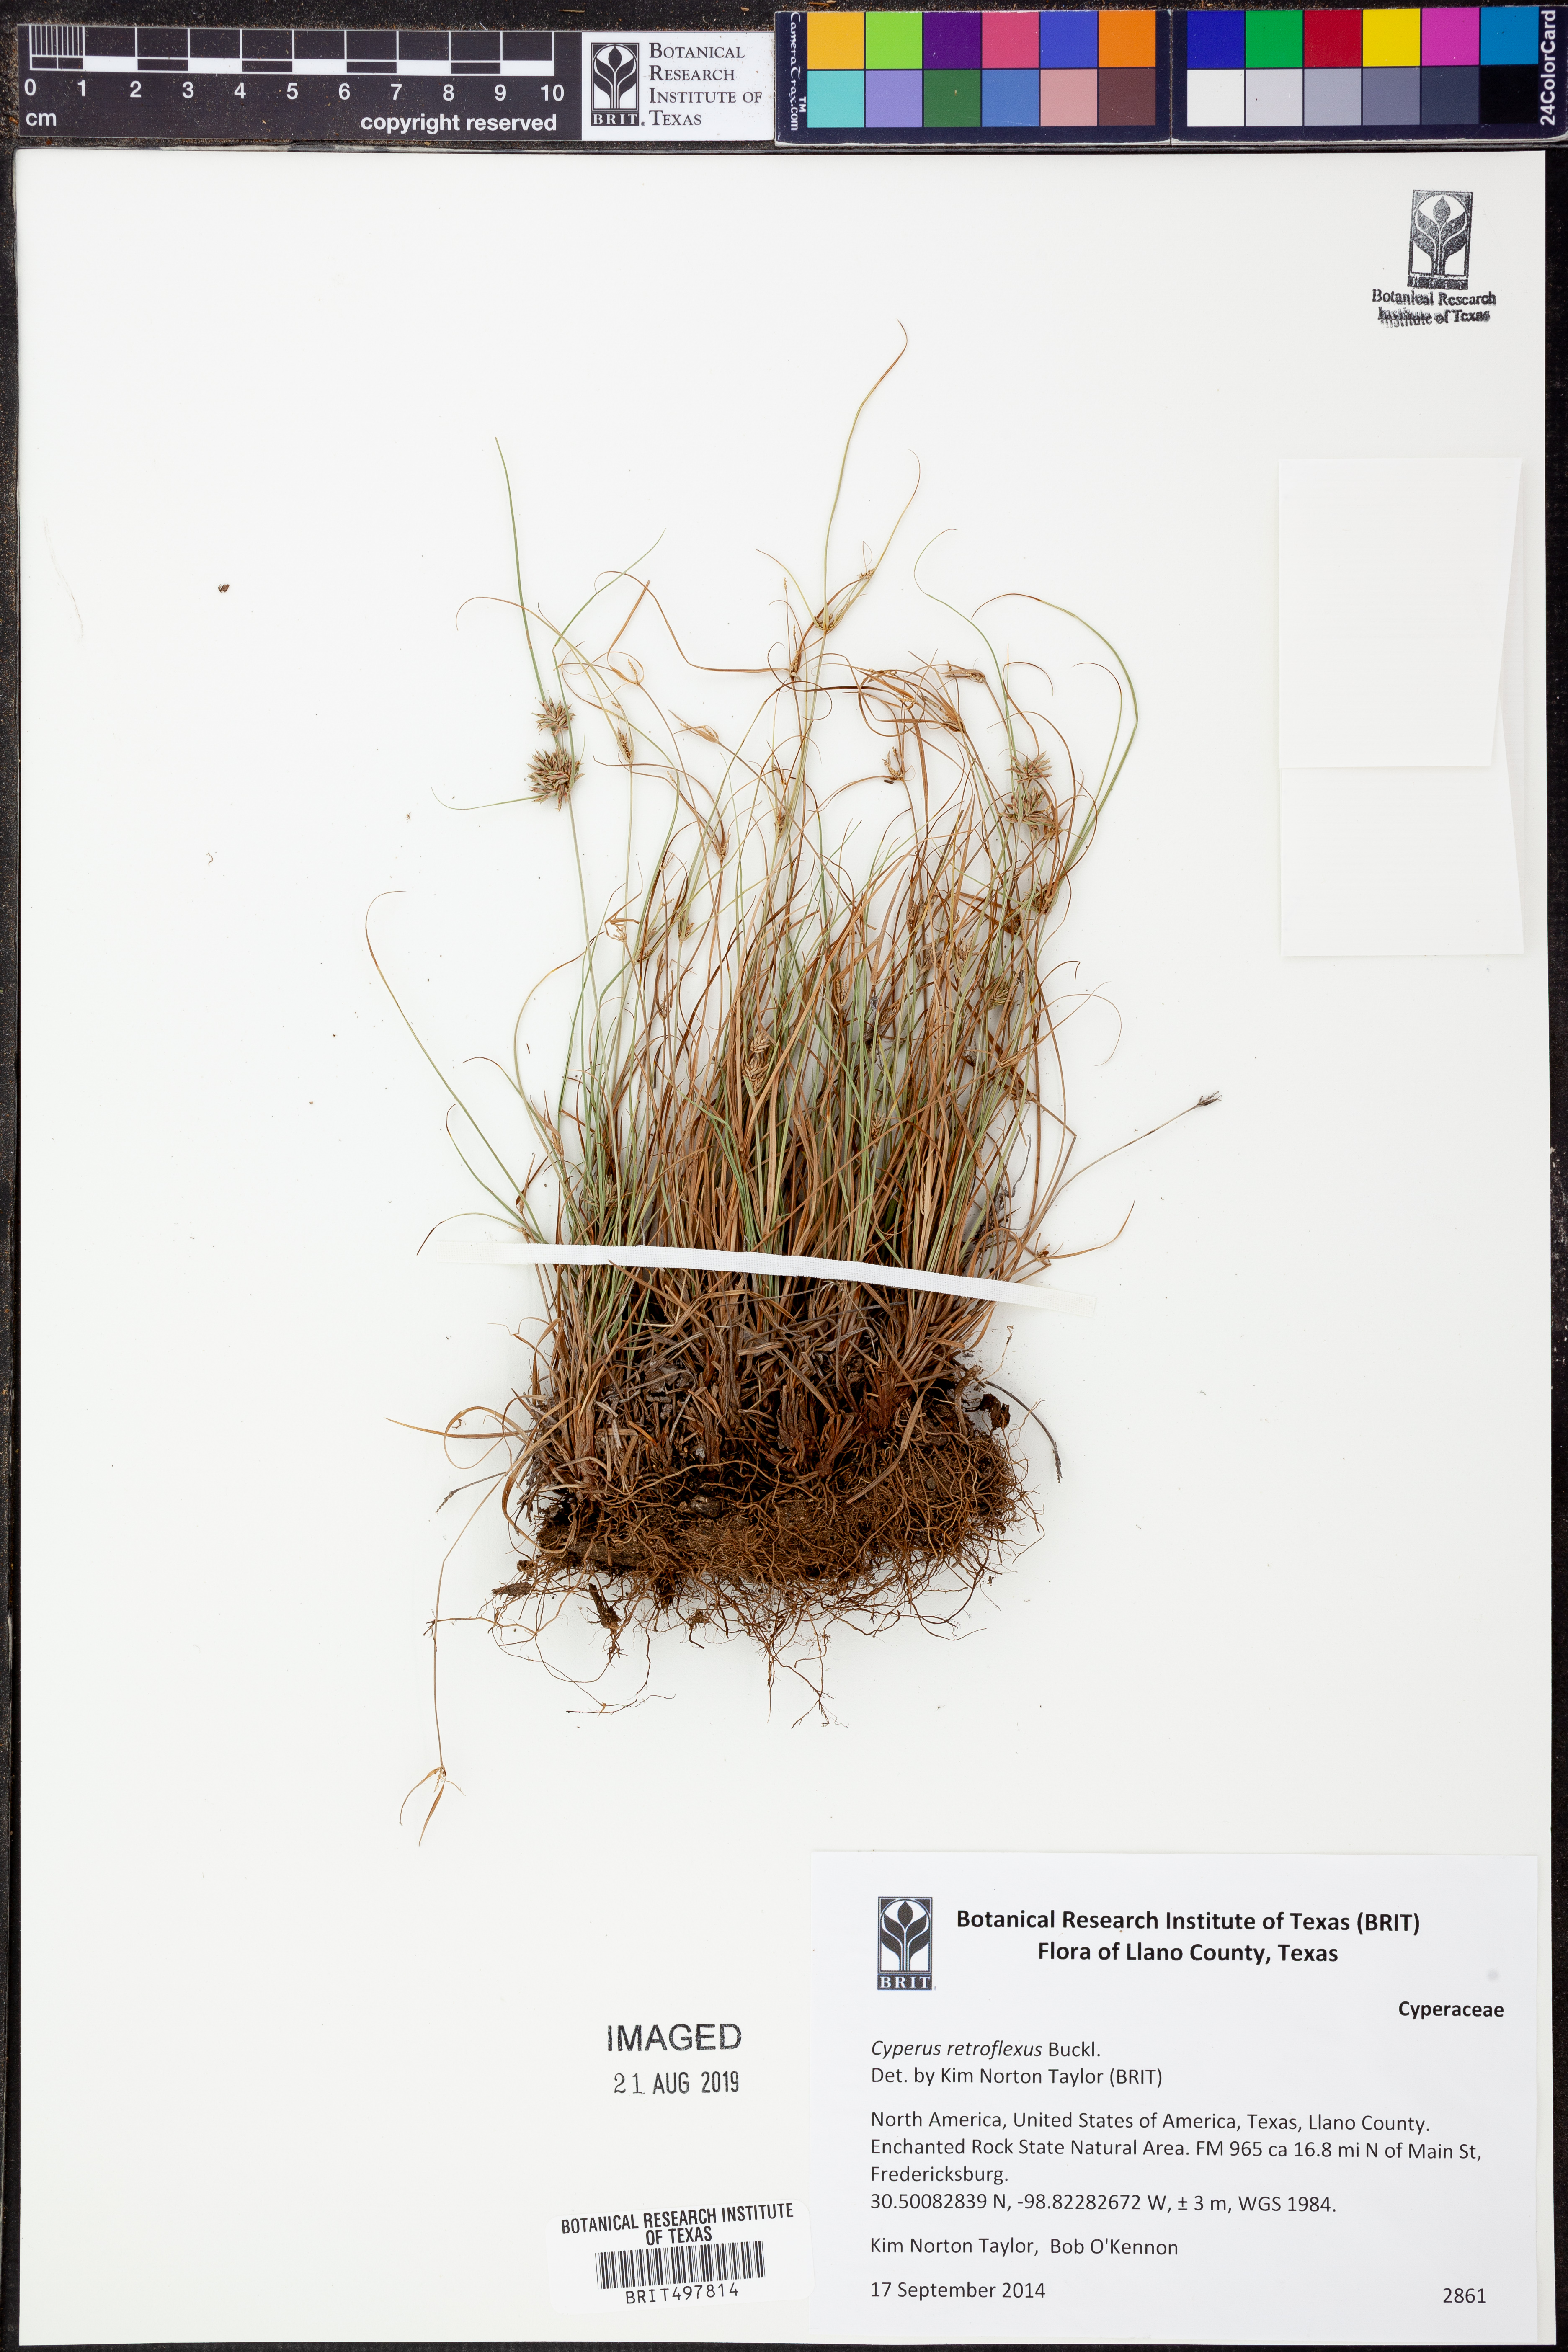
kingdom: Plantae
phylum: Tracheophyta
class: Liliopsida
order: Poales
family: Cyperaceae
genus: Cyperus
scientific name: Cyperus retroflexus
